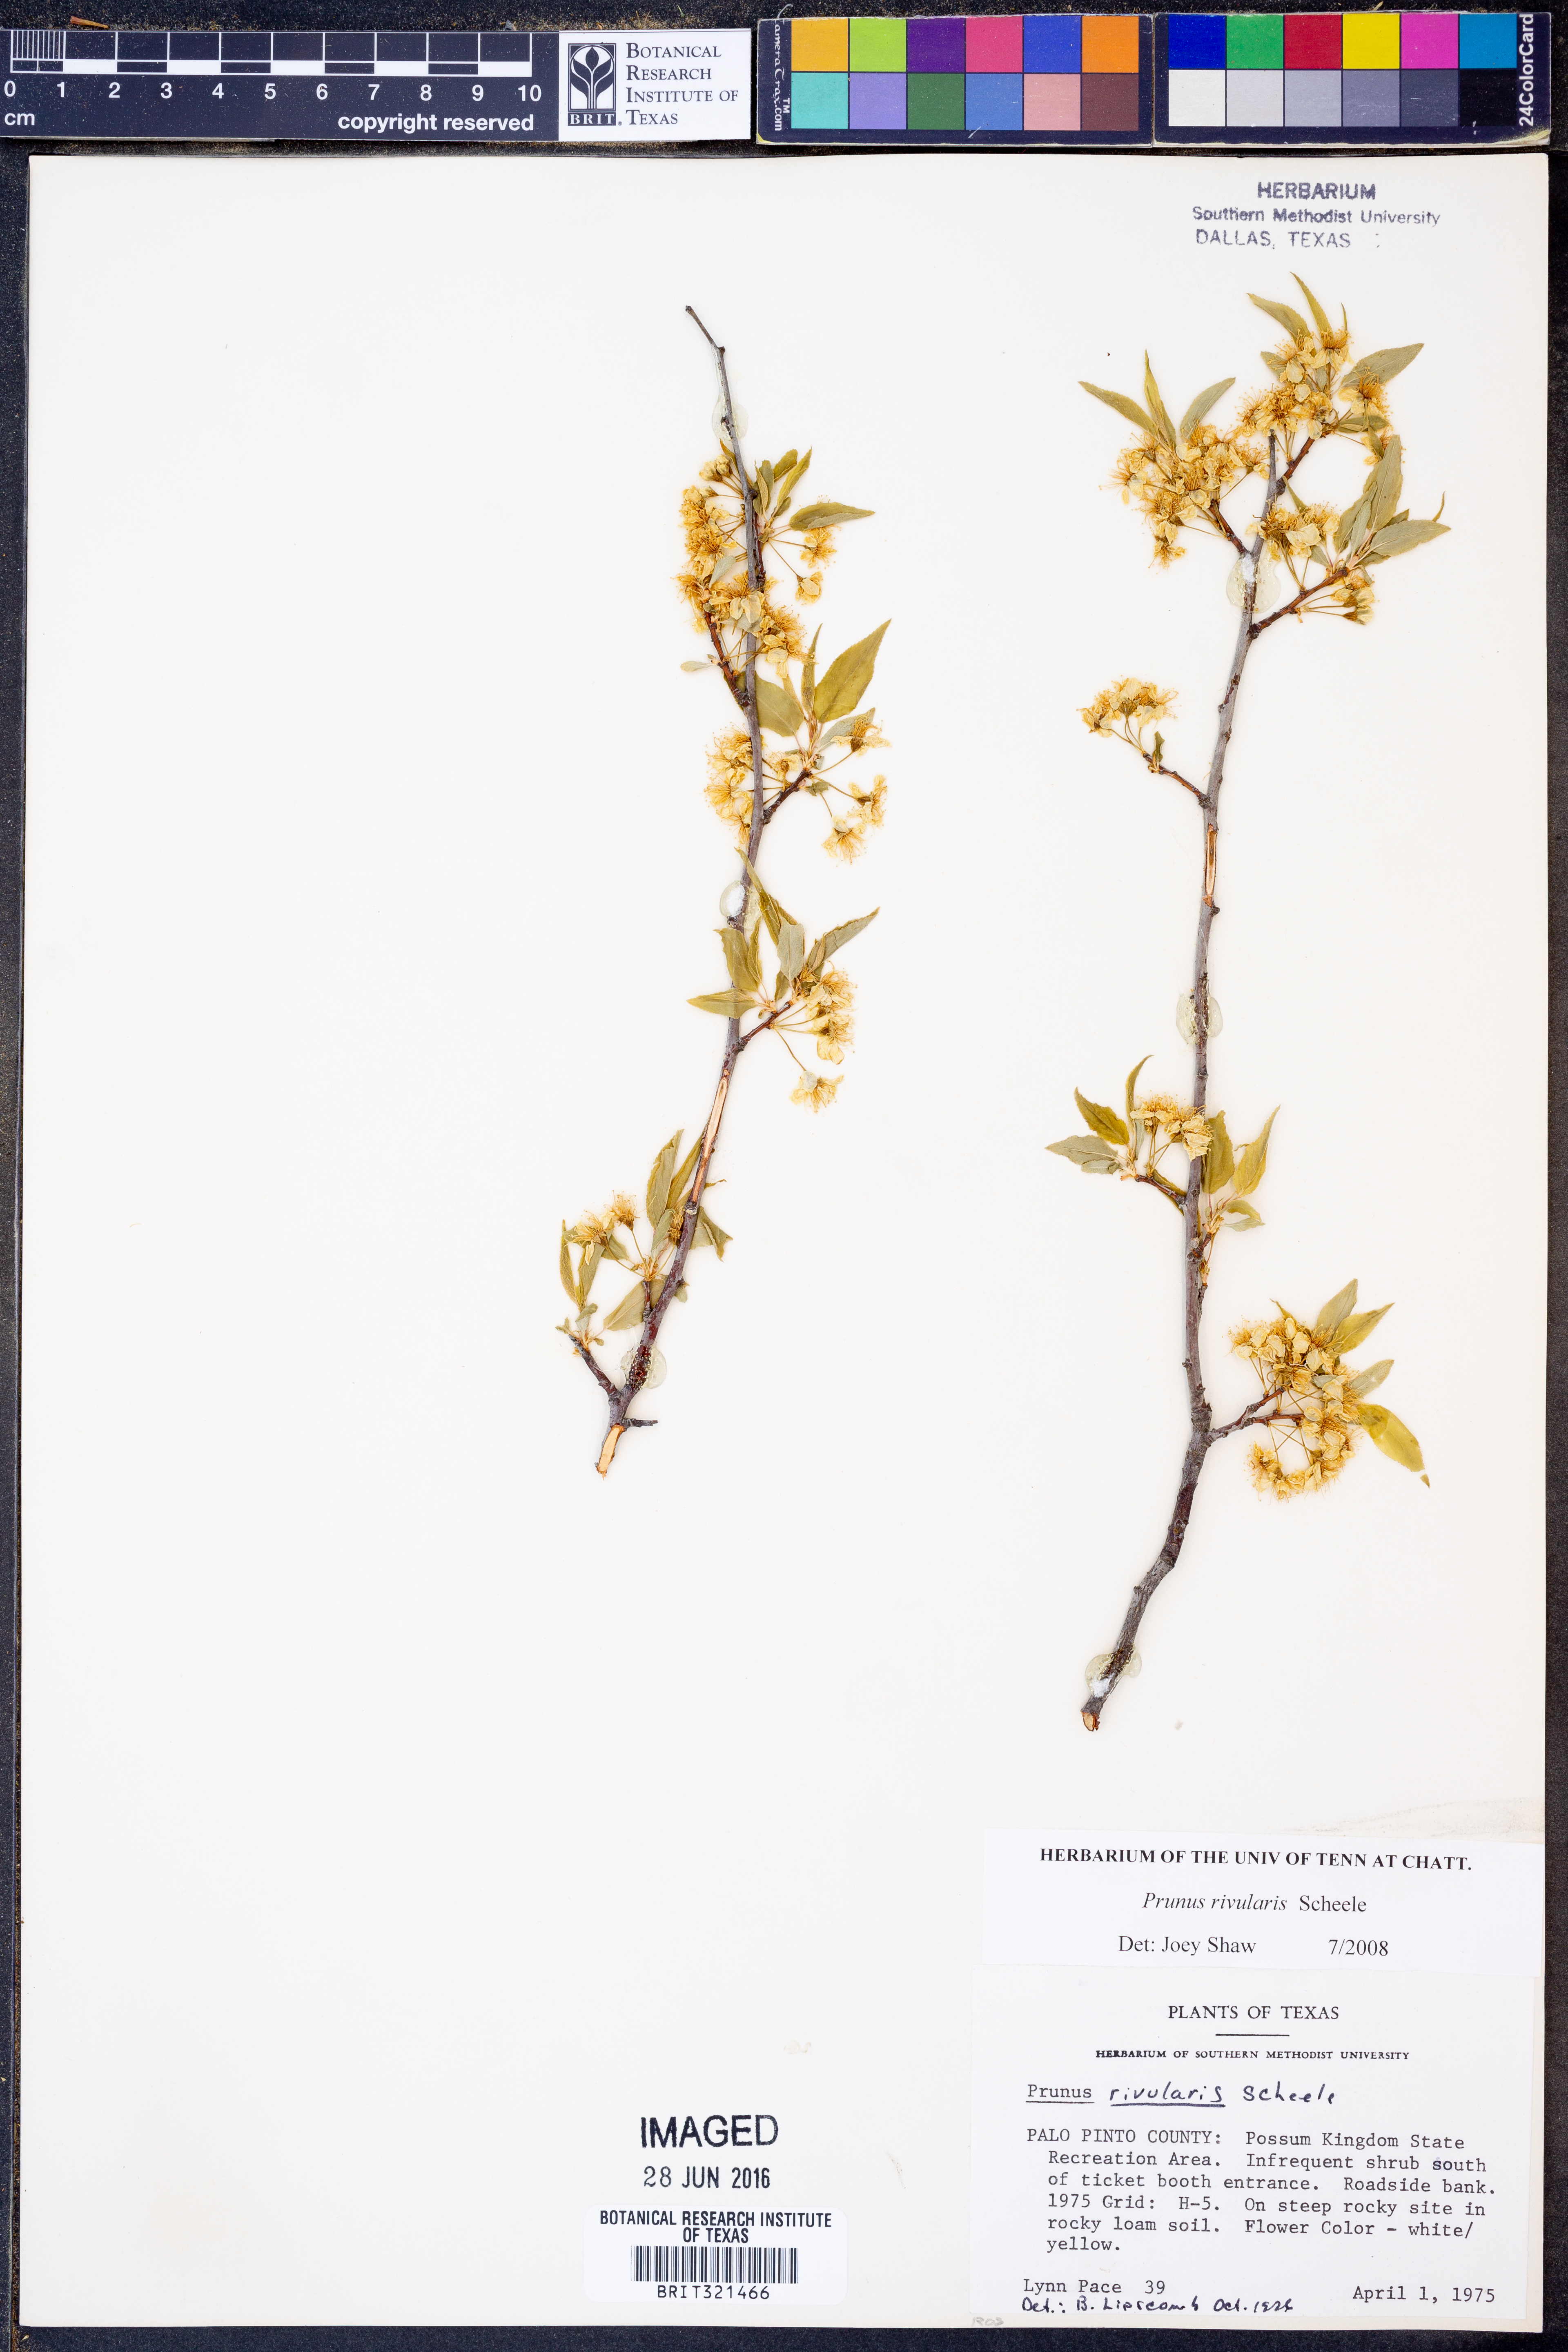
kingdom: Plantae
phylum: Tracheophyta
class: Magnoliopsida
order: Rosales
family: Rosaceae
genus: Prunus
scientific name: Prunus rivularis
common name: Creek plum
